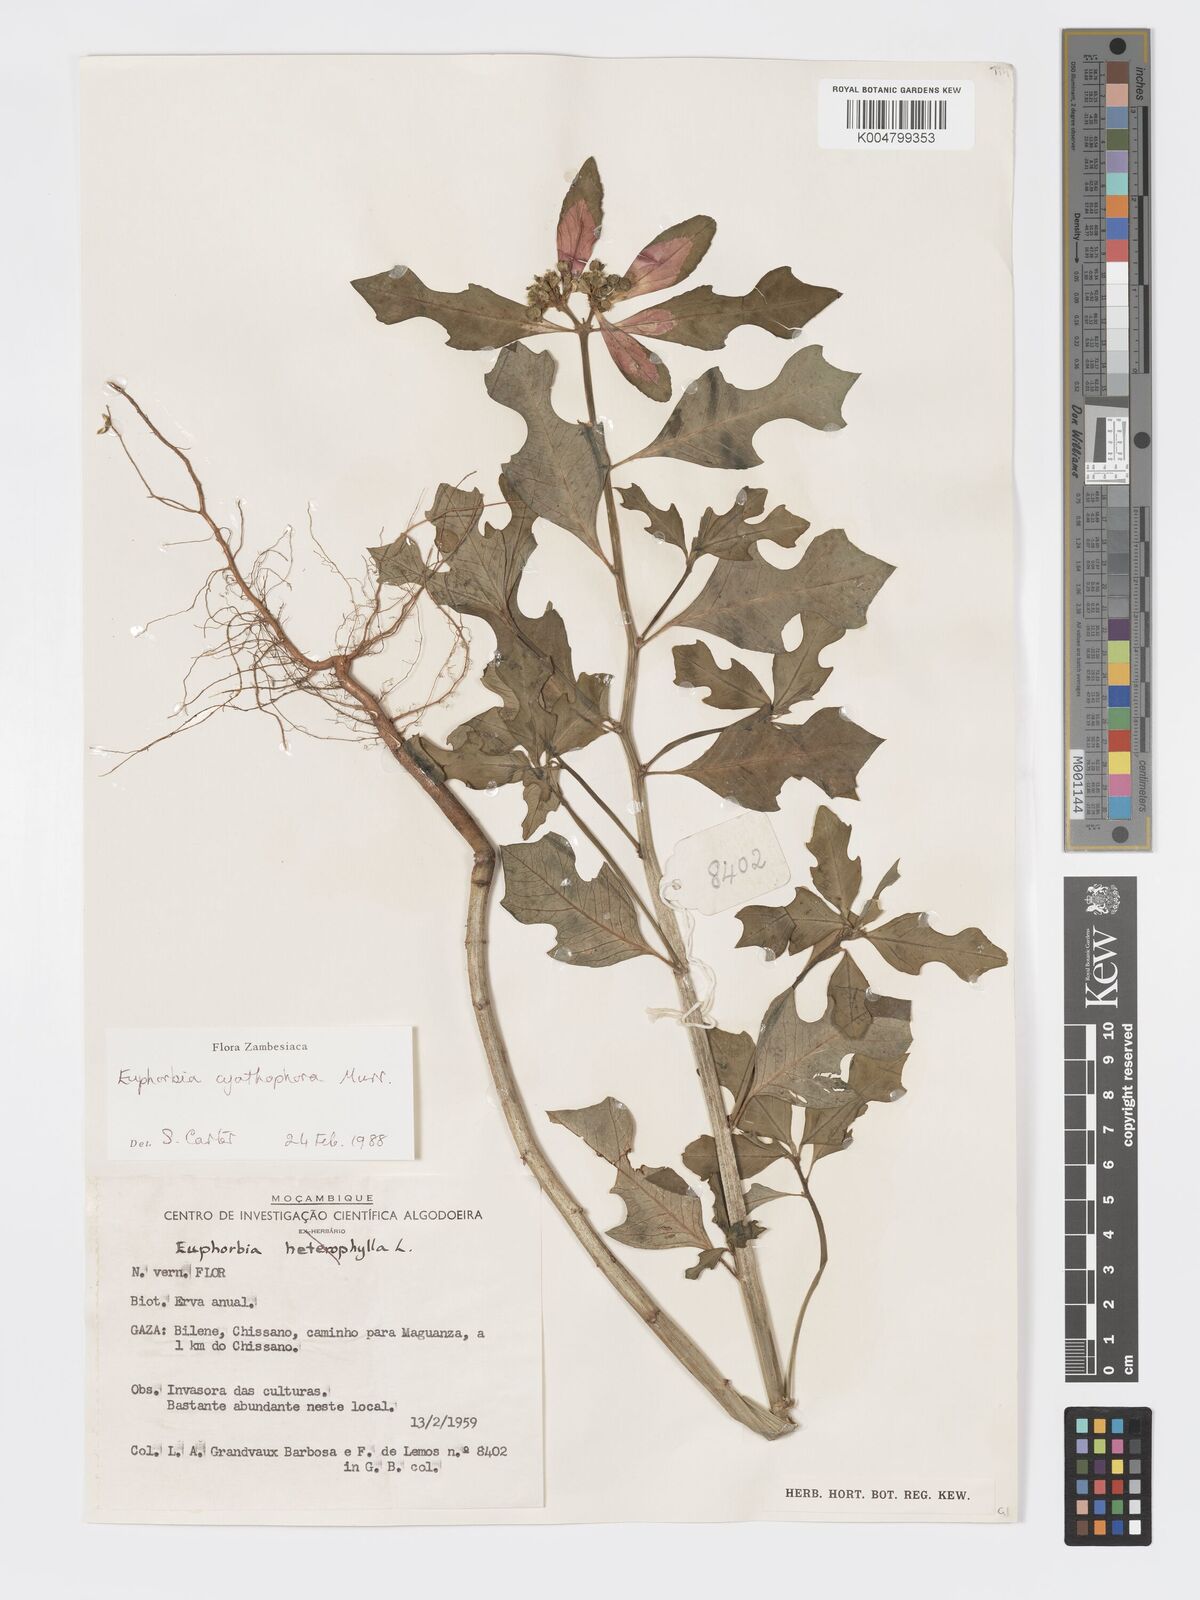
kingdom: Plantae
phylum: Tracheophyta
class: Magnoliopsida
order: Malpighiales
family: Euphorbiaceae
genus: Euphorbia
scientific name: Euphorbia heterophylla
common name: Mexican fireplant
